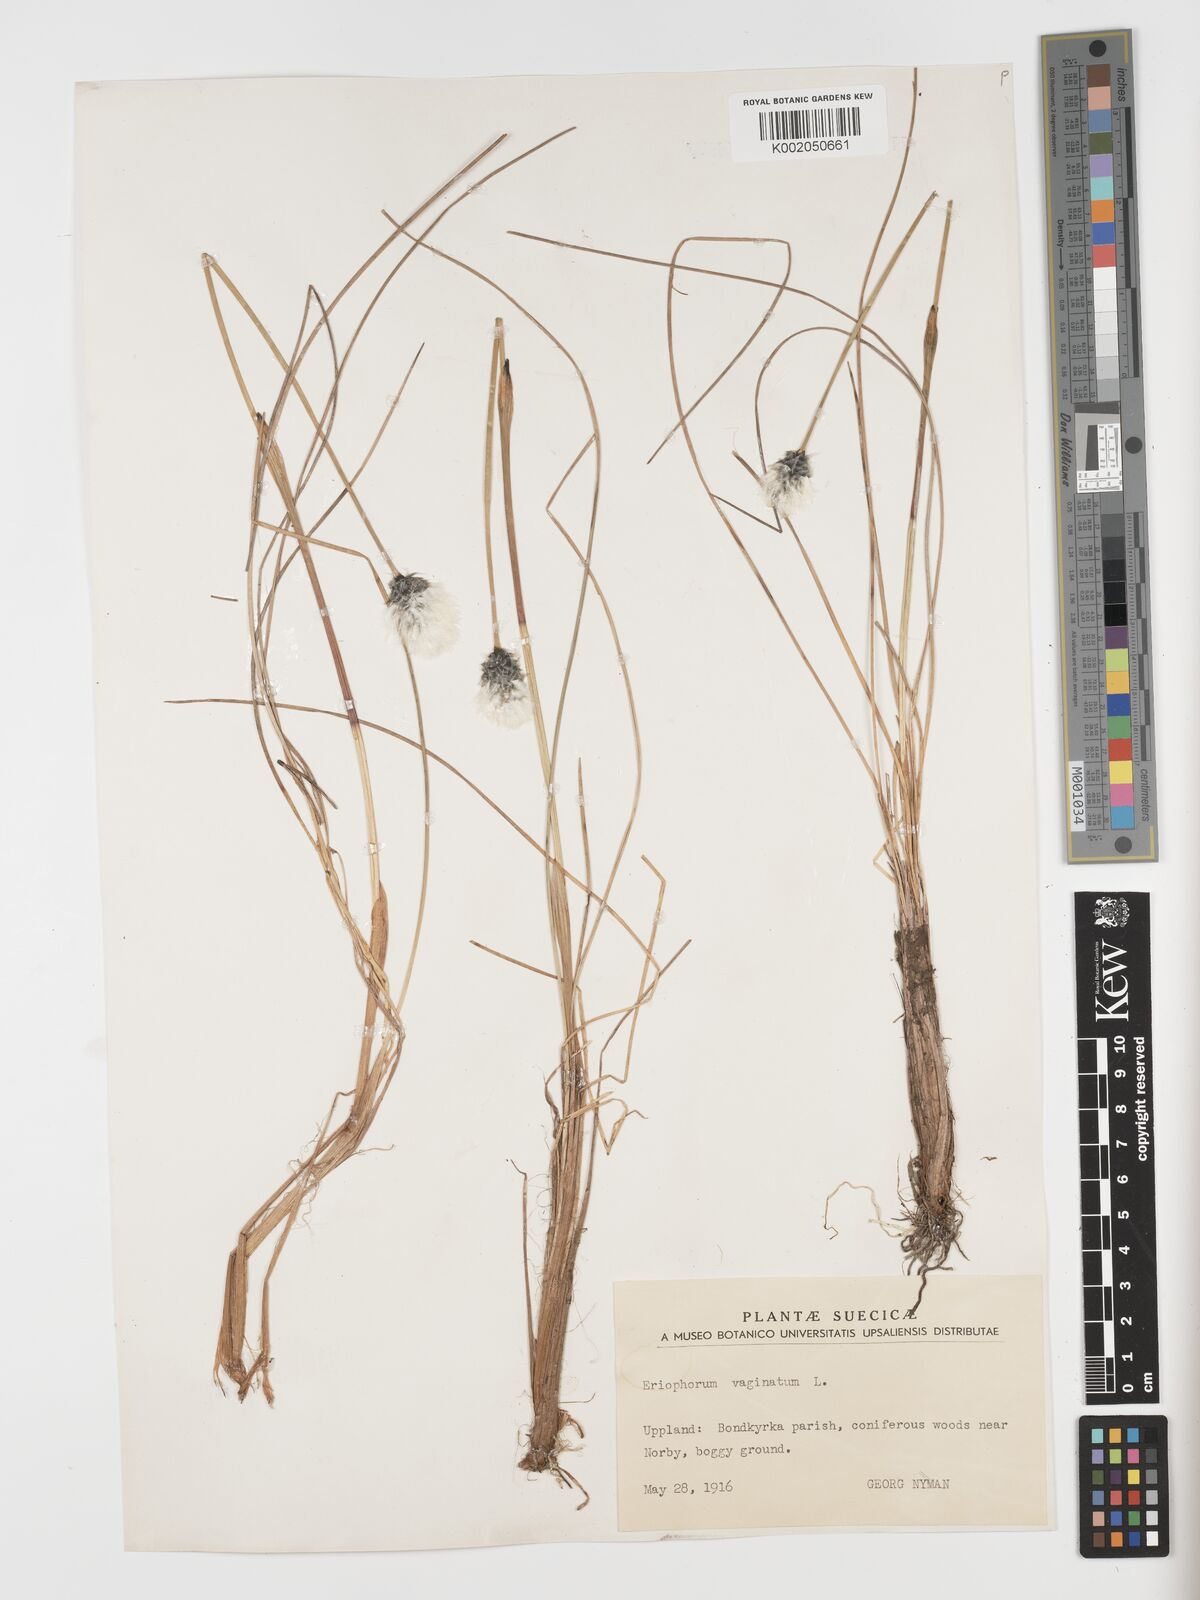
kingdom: Plantae
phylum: Tracheophyta
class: Liliopsida
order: Poales
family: Cyperaceae
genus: Eriophorum
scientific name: Eriophorum vaginatum
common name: Hare's-tail cottongrass
